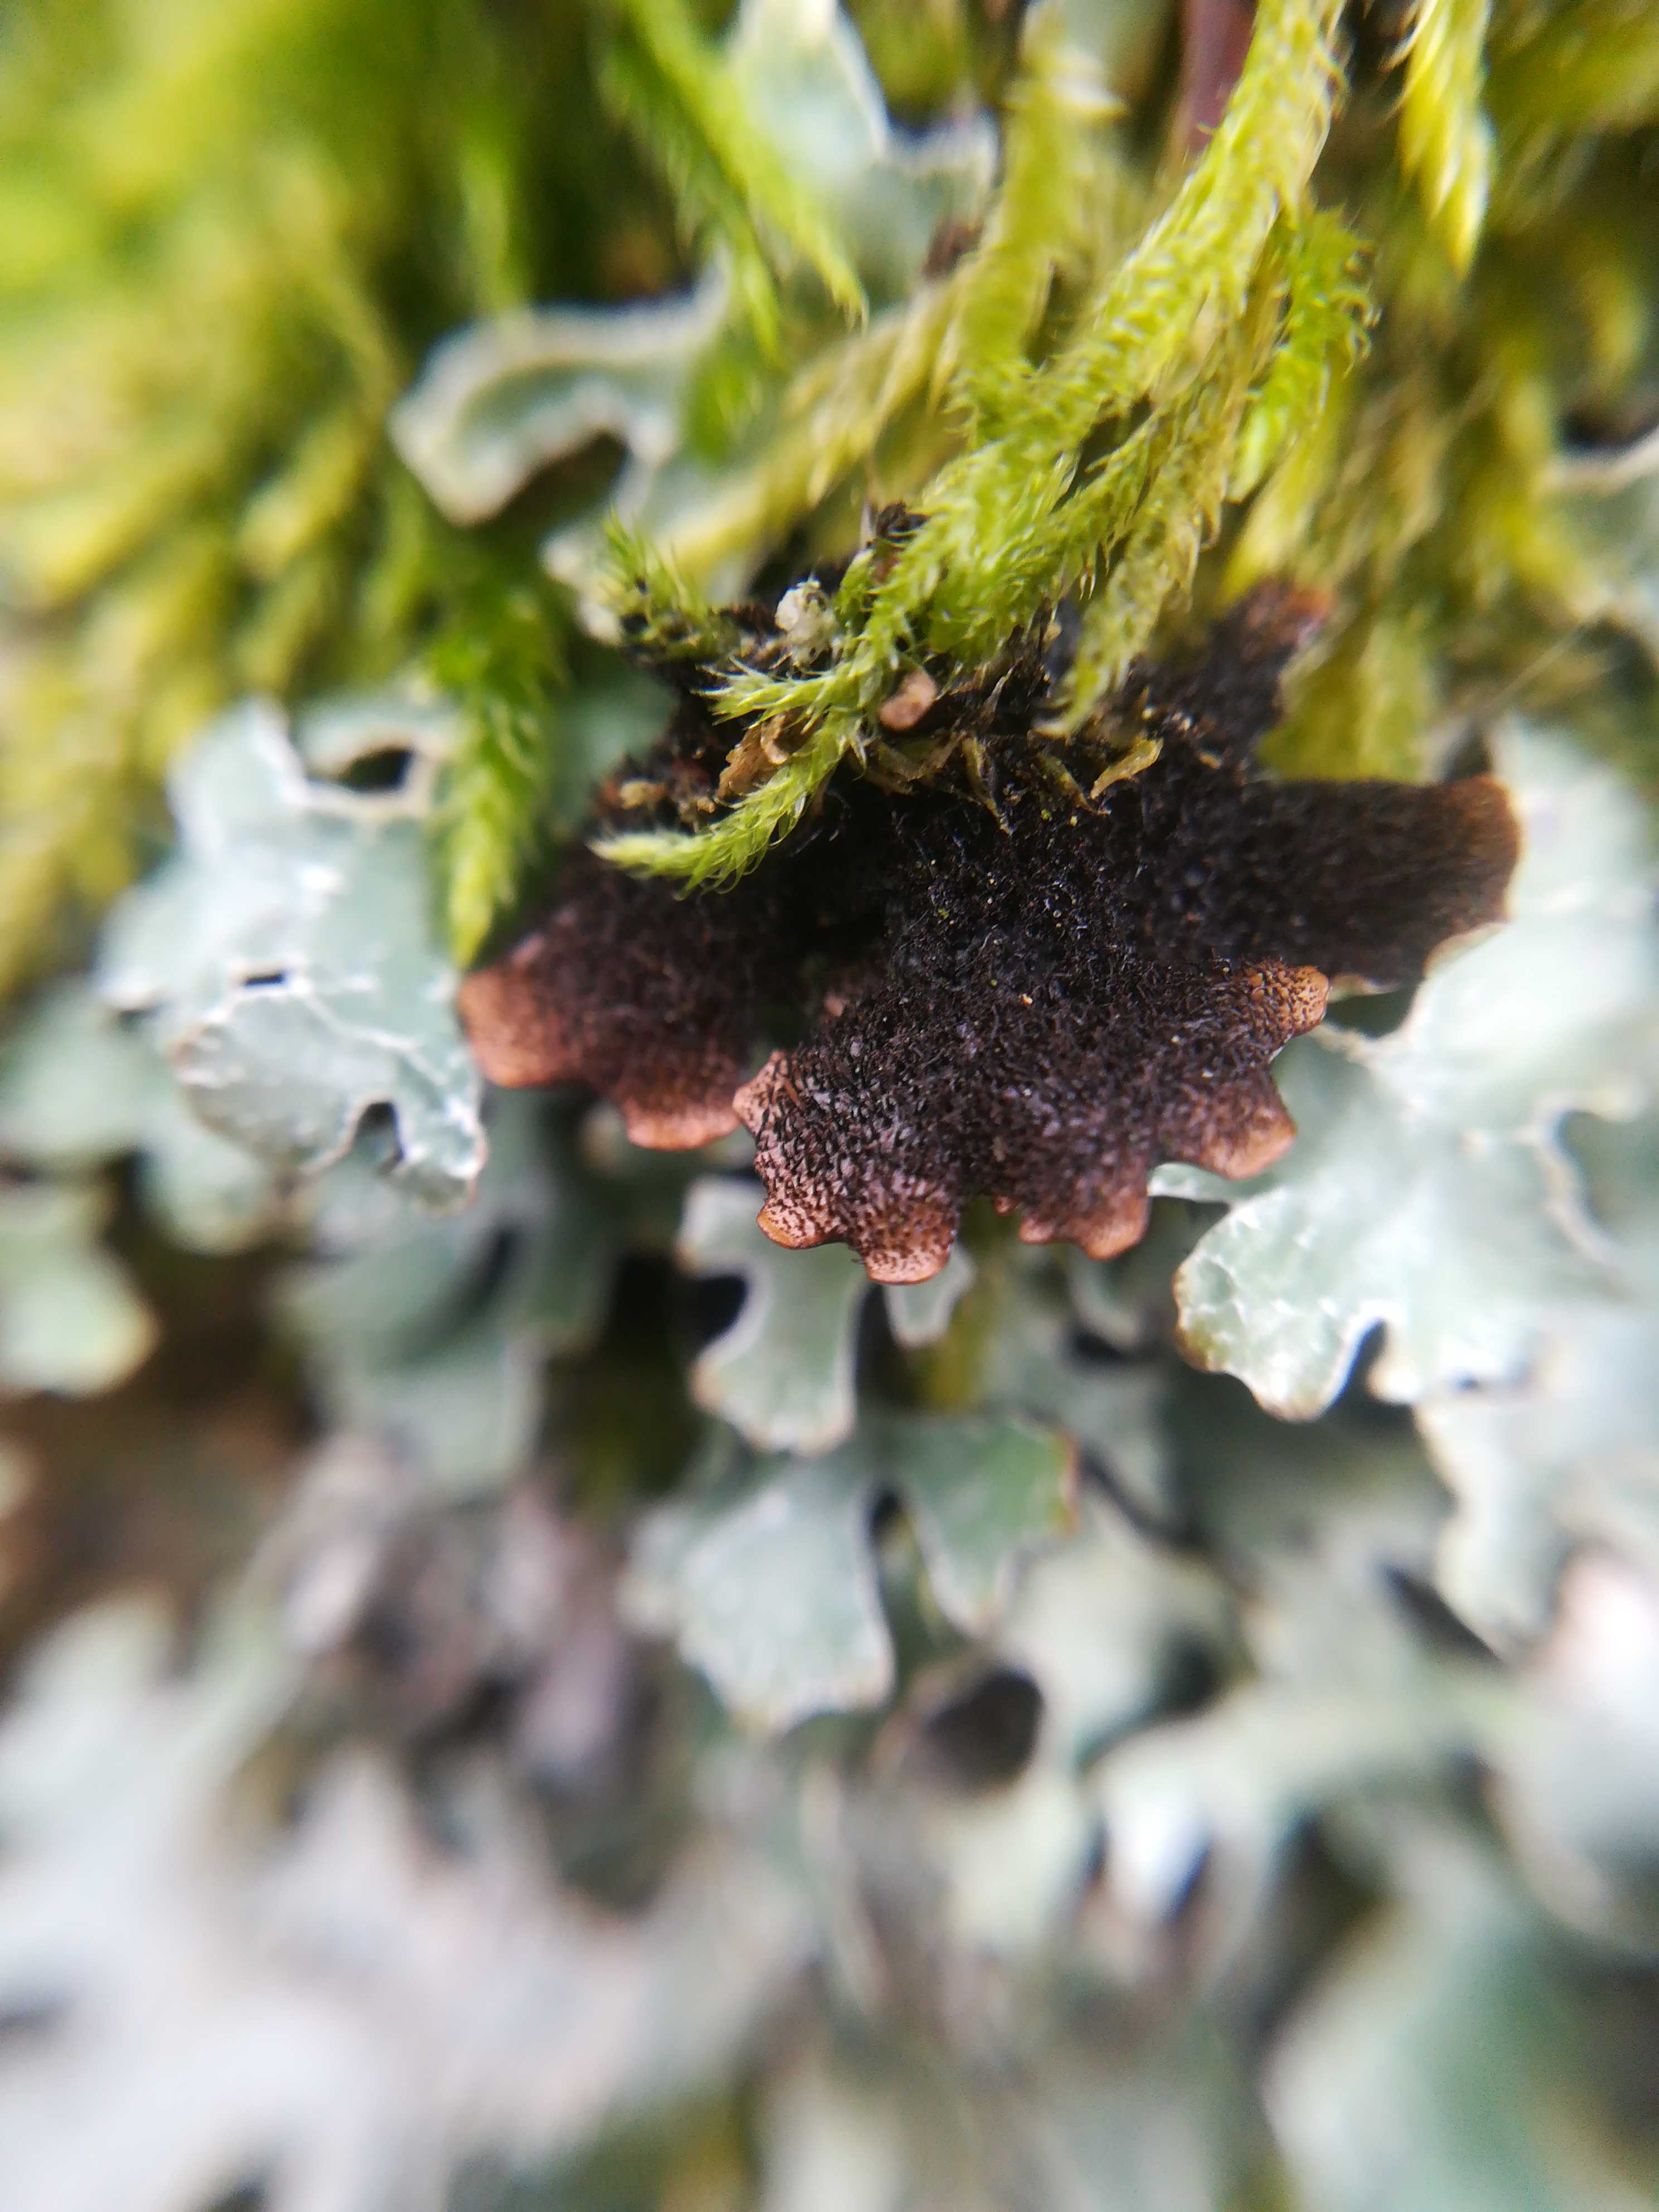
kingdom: Fungi
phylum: Ascomycota
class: Lecanoromycetes
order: Lecanorales
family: Parmeliaceae
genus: Parmelia
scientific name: Parmelia sulcata
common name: rynket skållav
